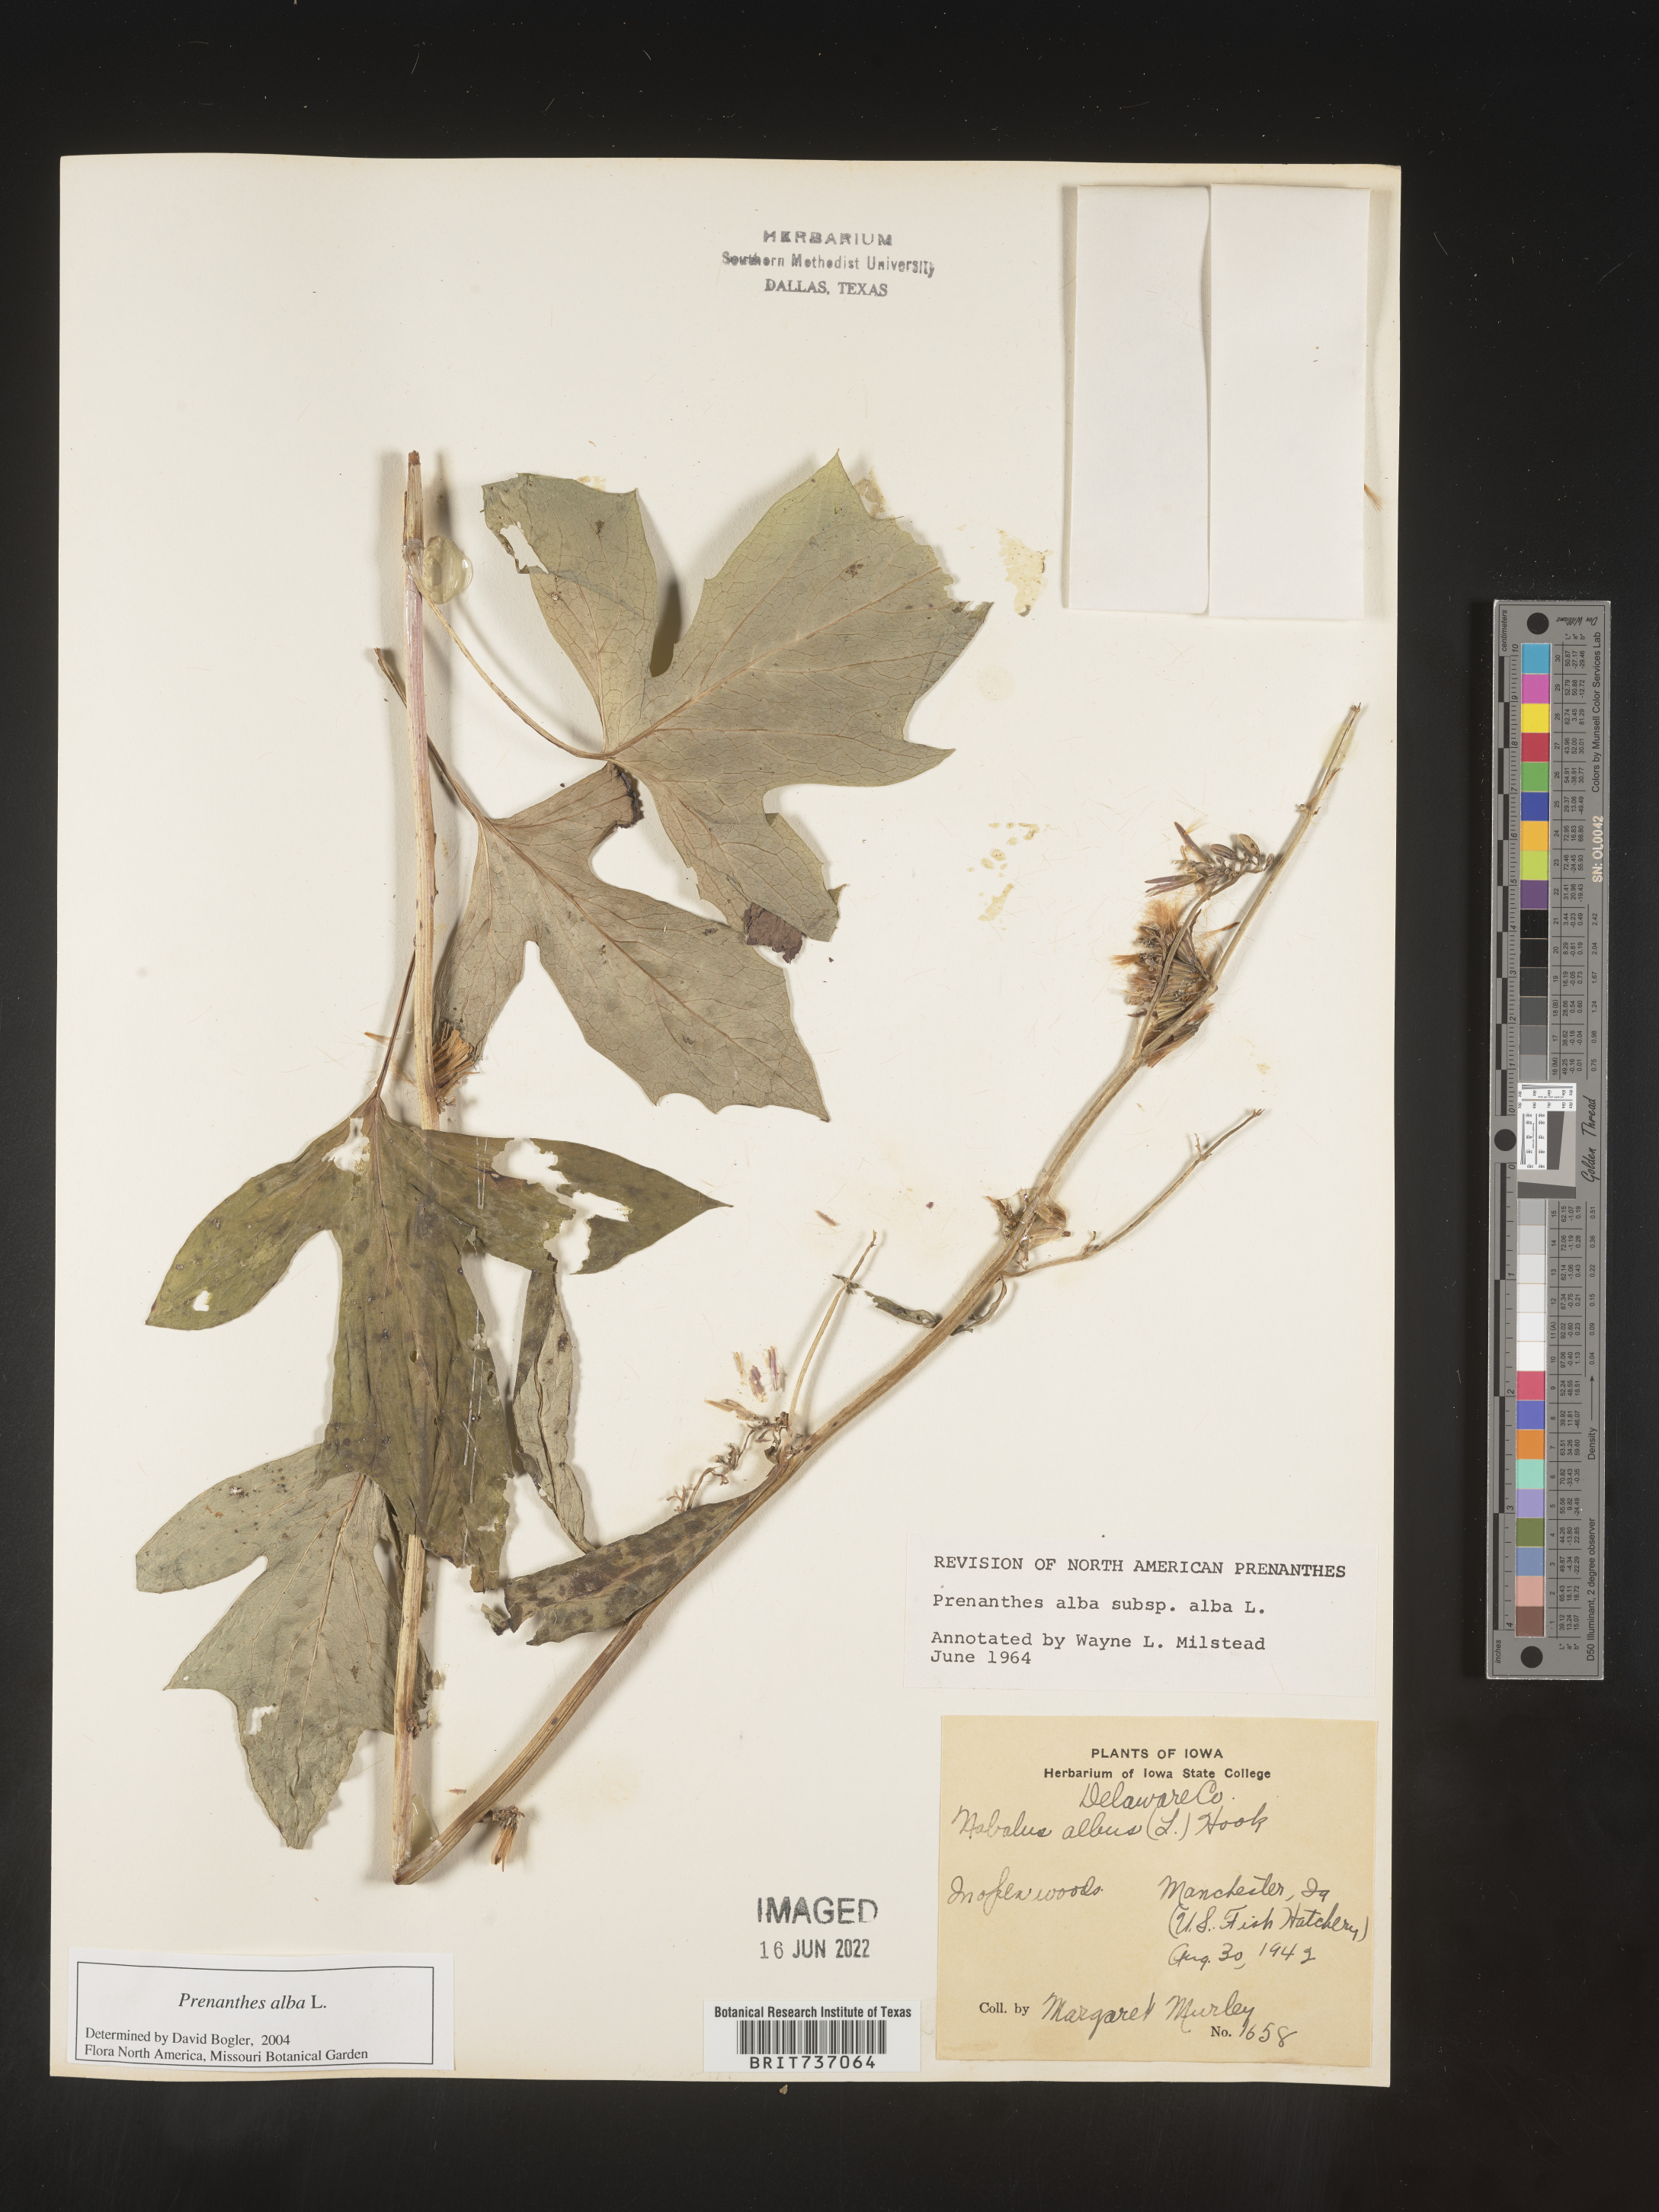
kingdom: Plantae
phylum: Tracheophyta
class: Magnoliopsida
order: Asterales
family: Asteraceae
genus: Nabalus
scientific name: Nabalus albus
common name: White rattlesnakeroot
